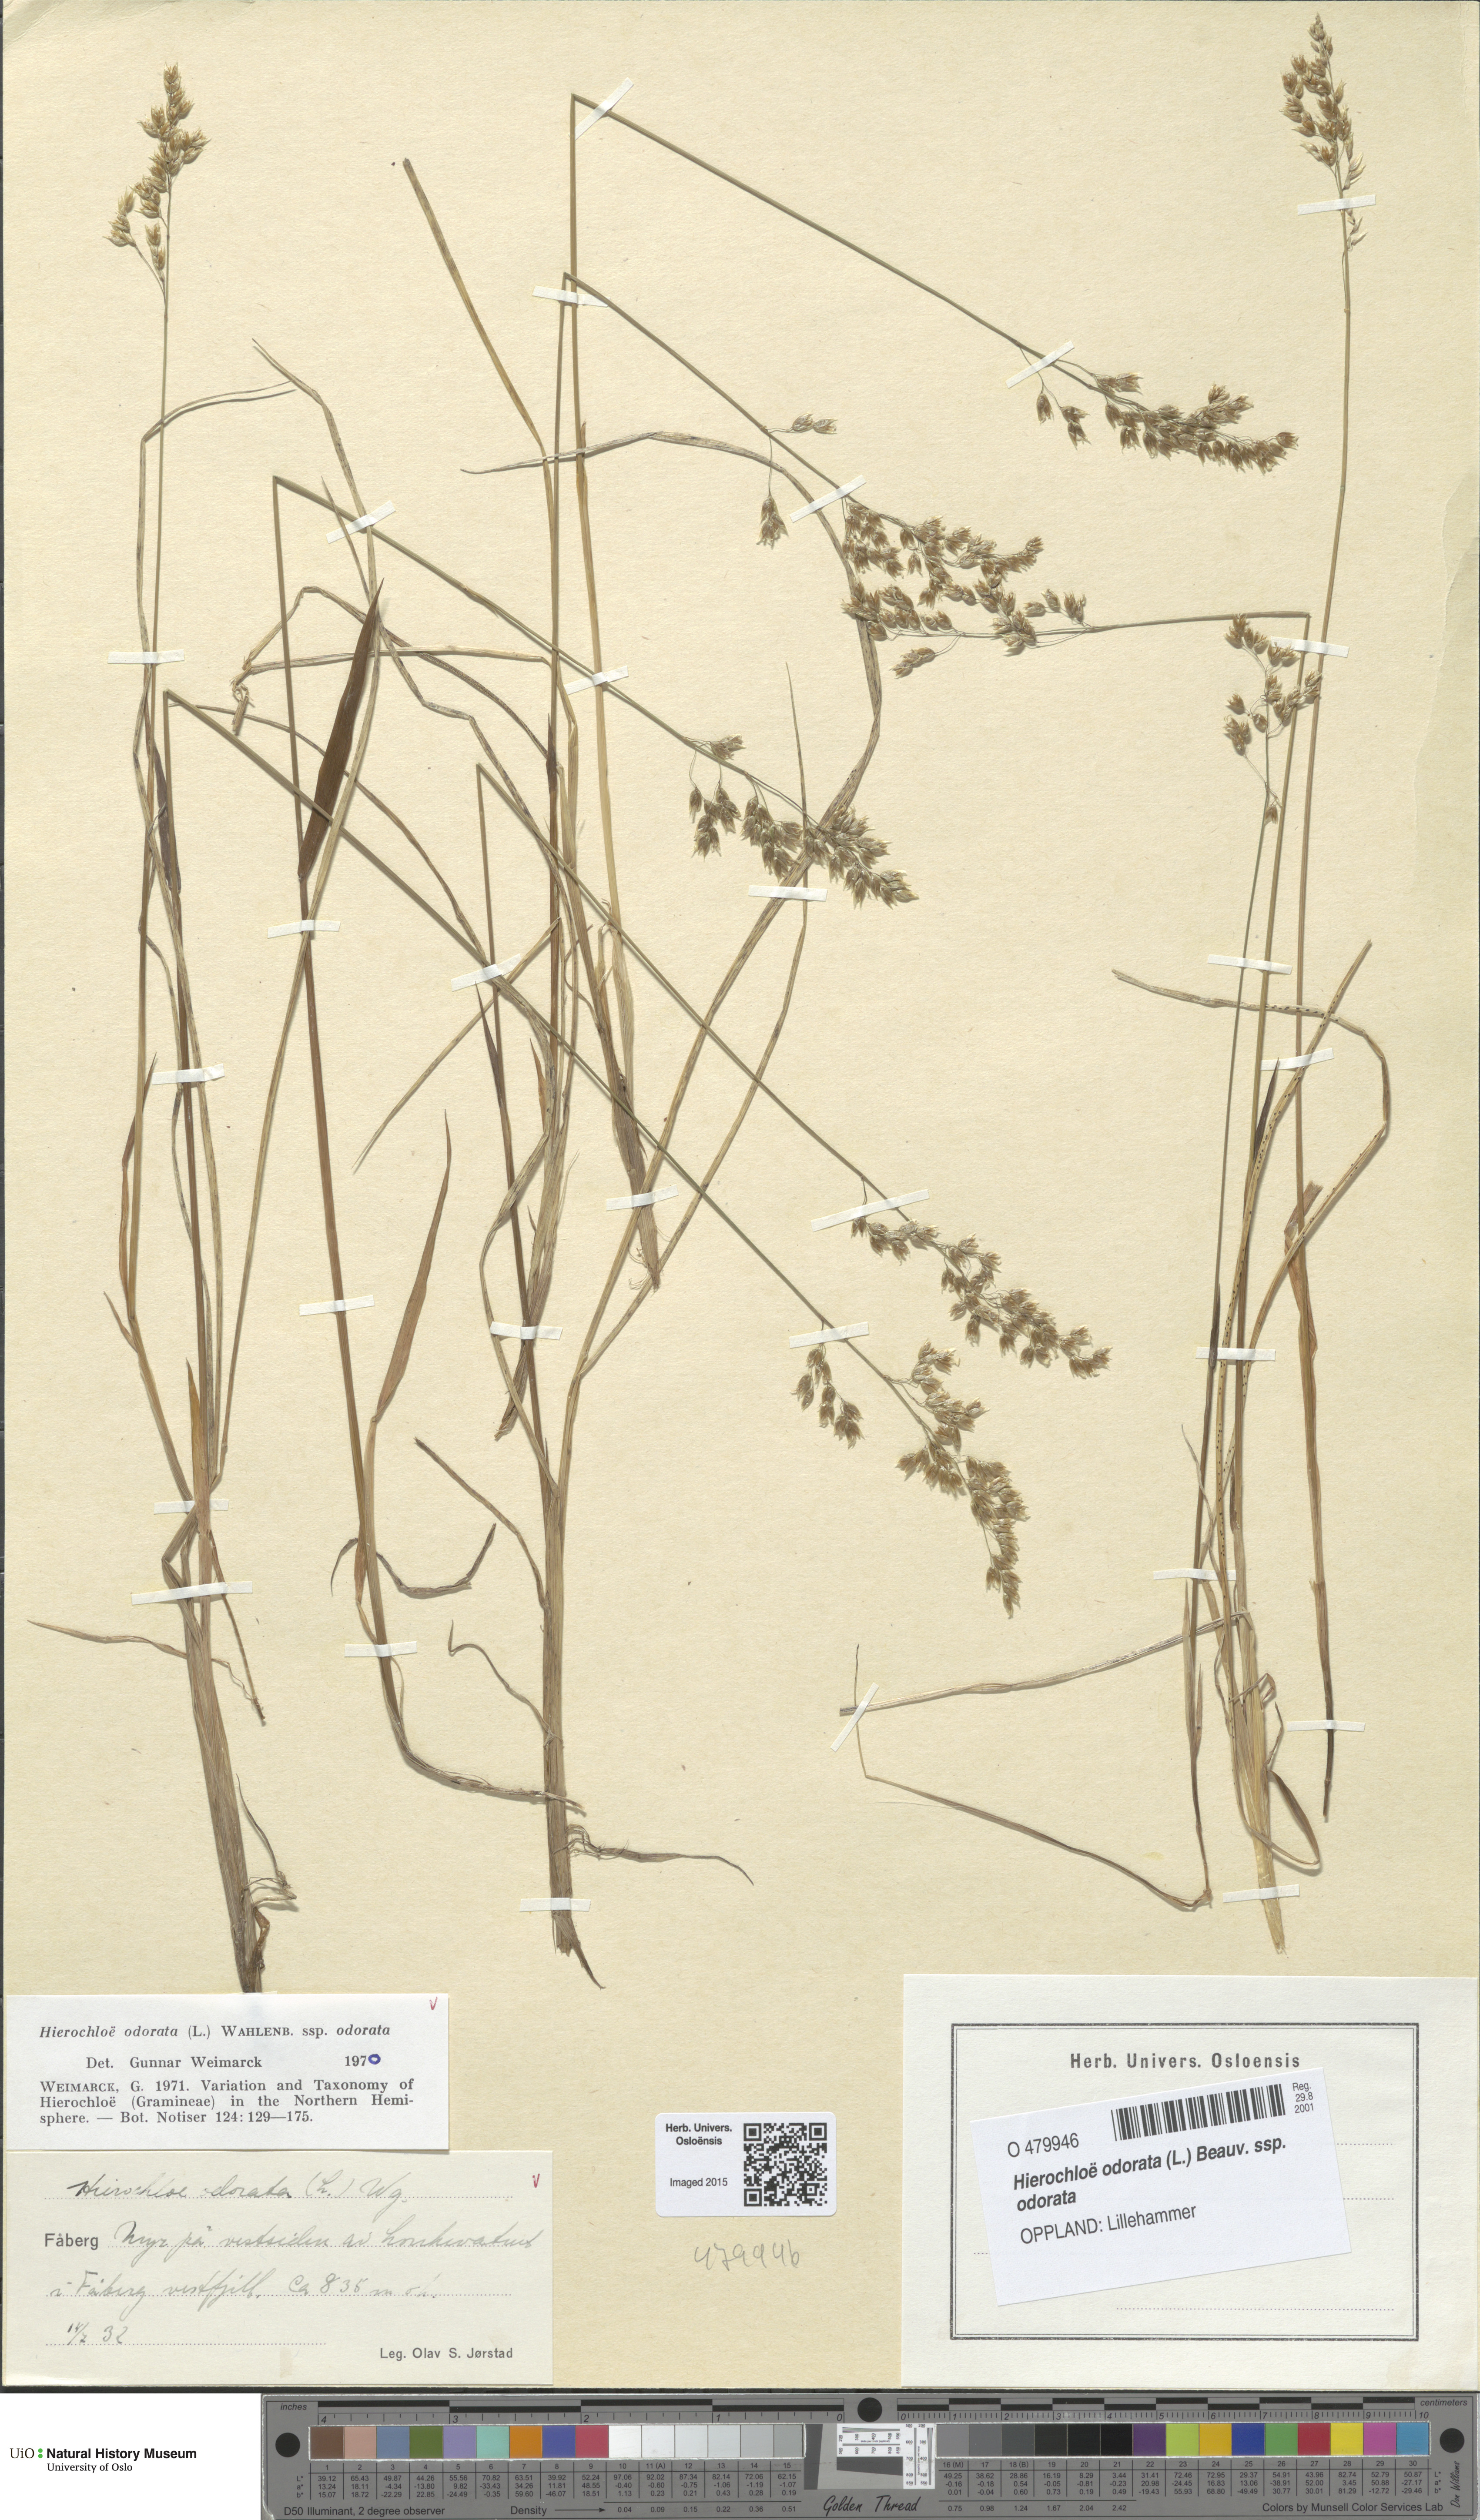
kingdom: Plantae
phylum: Tracheophyta
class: Liliopsida
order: Poales
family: Poaceae
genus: Anthoxanthum
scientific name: Anthoxanthum nitens
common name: Holy grass
